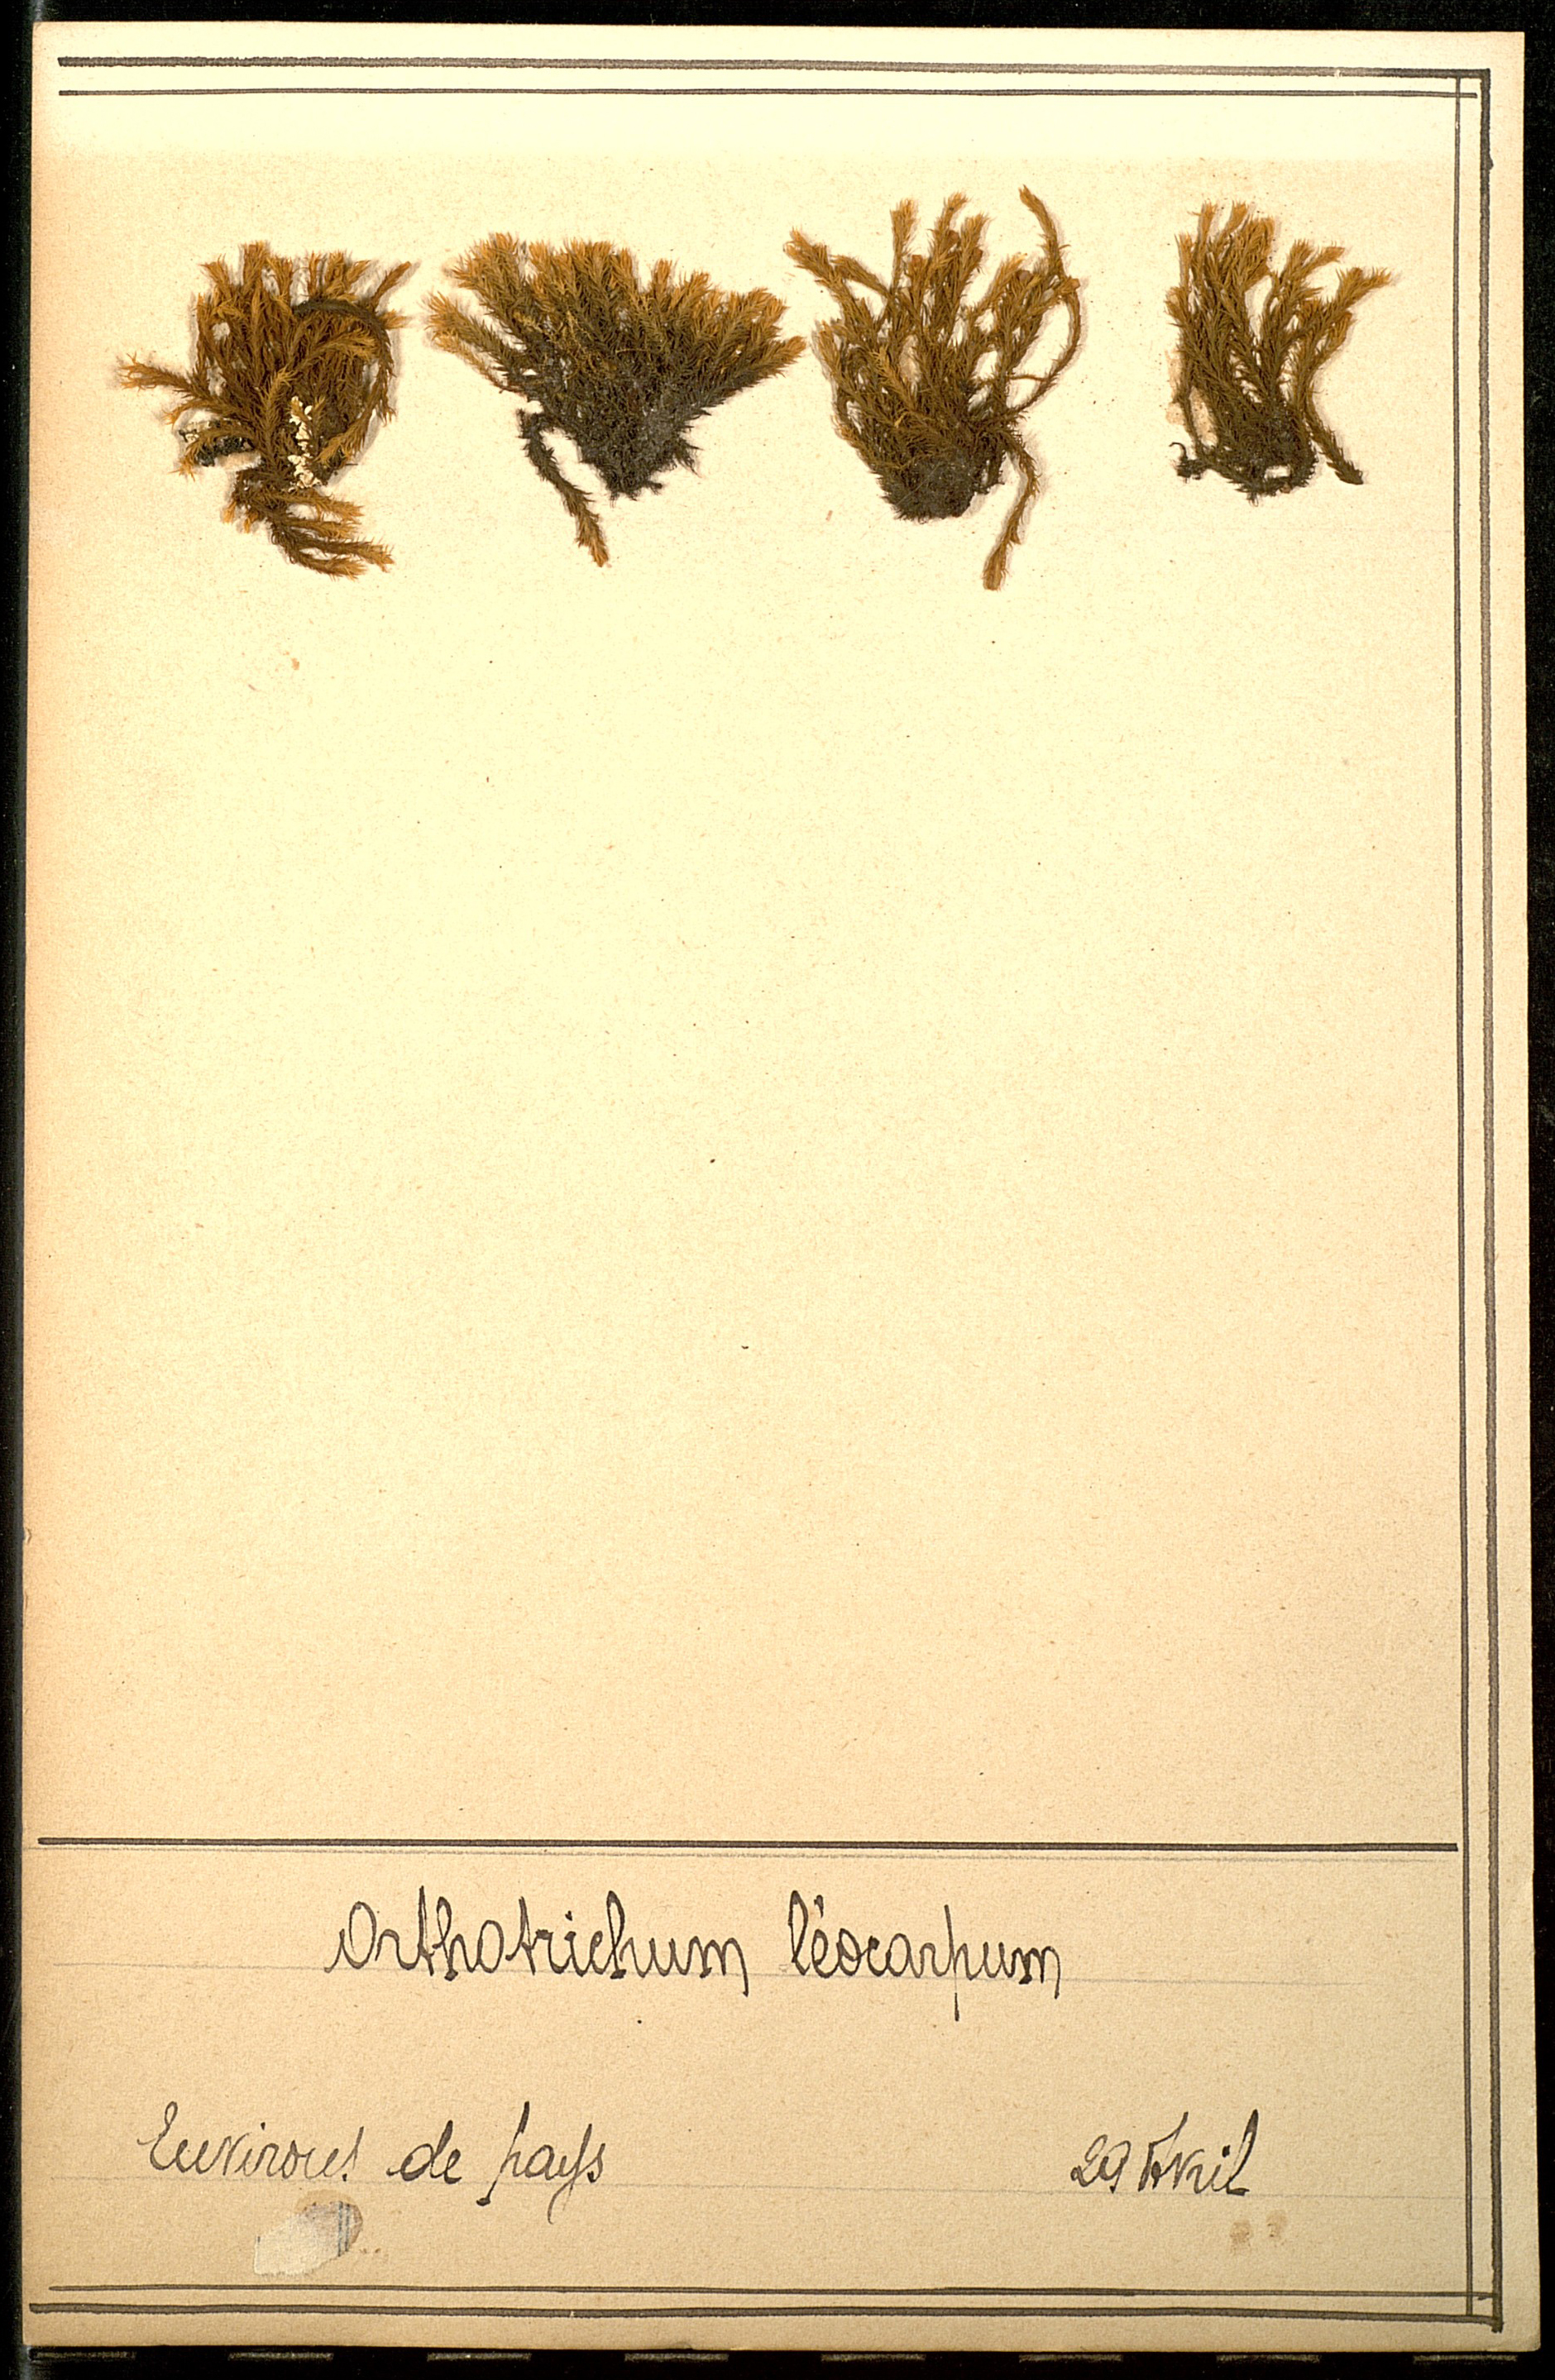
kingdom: Plantae
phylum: Bryophyta
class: Bryopsida
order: Orthotrichales
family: Orthotrichaceae
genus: Lewinskya
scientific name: Lewinskya striata
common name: Shaw's bristle-moss
